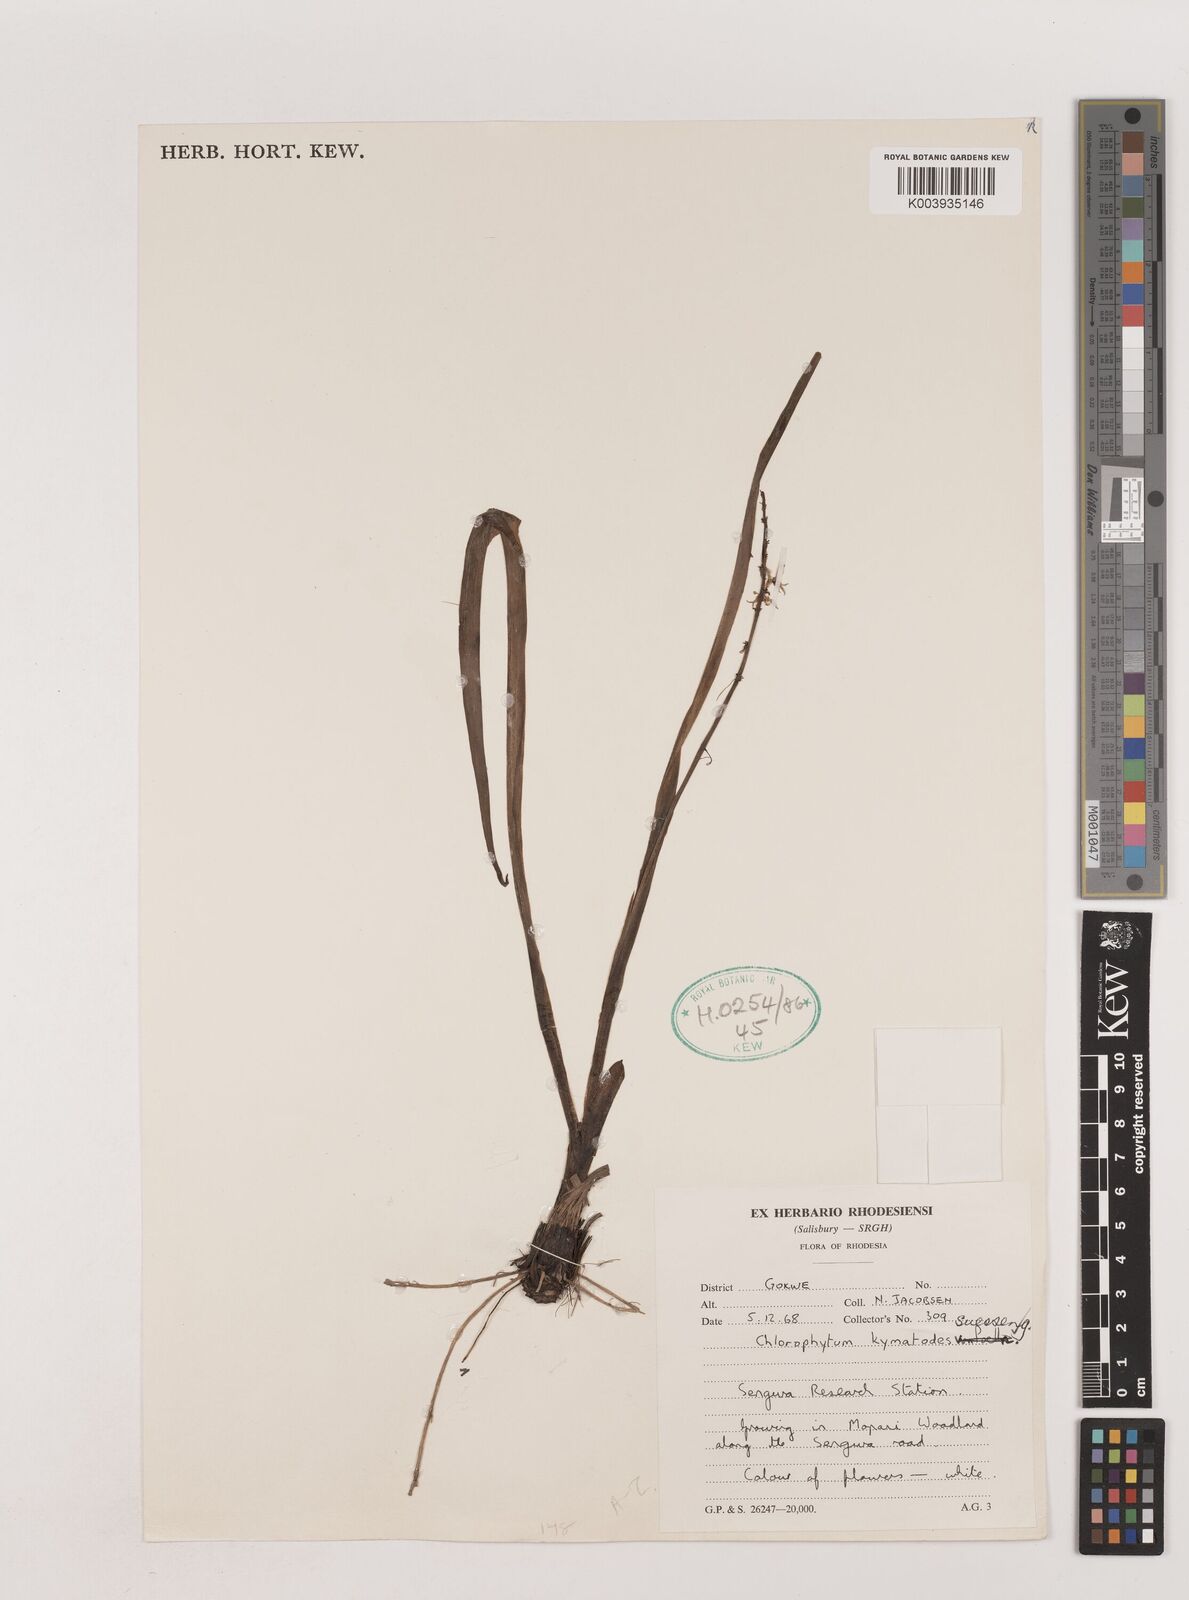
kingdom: Plantae
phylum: Tracheophyta
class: Liliopsida
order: Asparagales
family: Asparagaceae
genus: Chlorophytum
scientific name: Chlorophytum pauper
